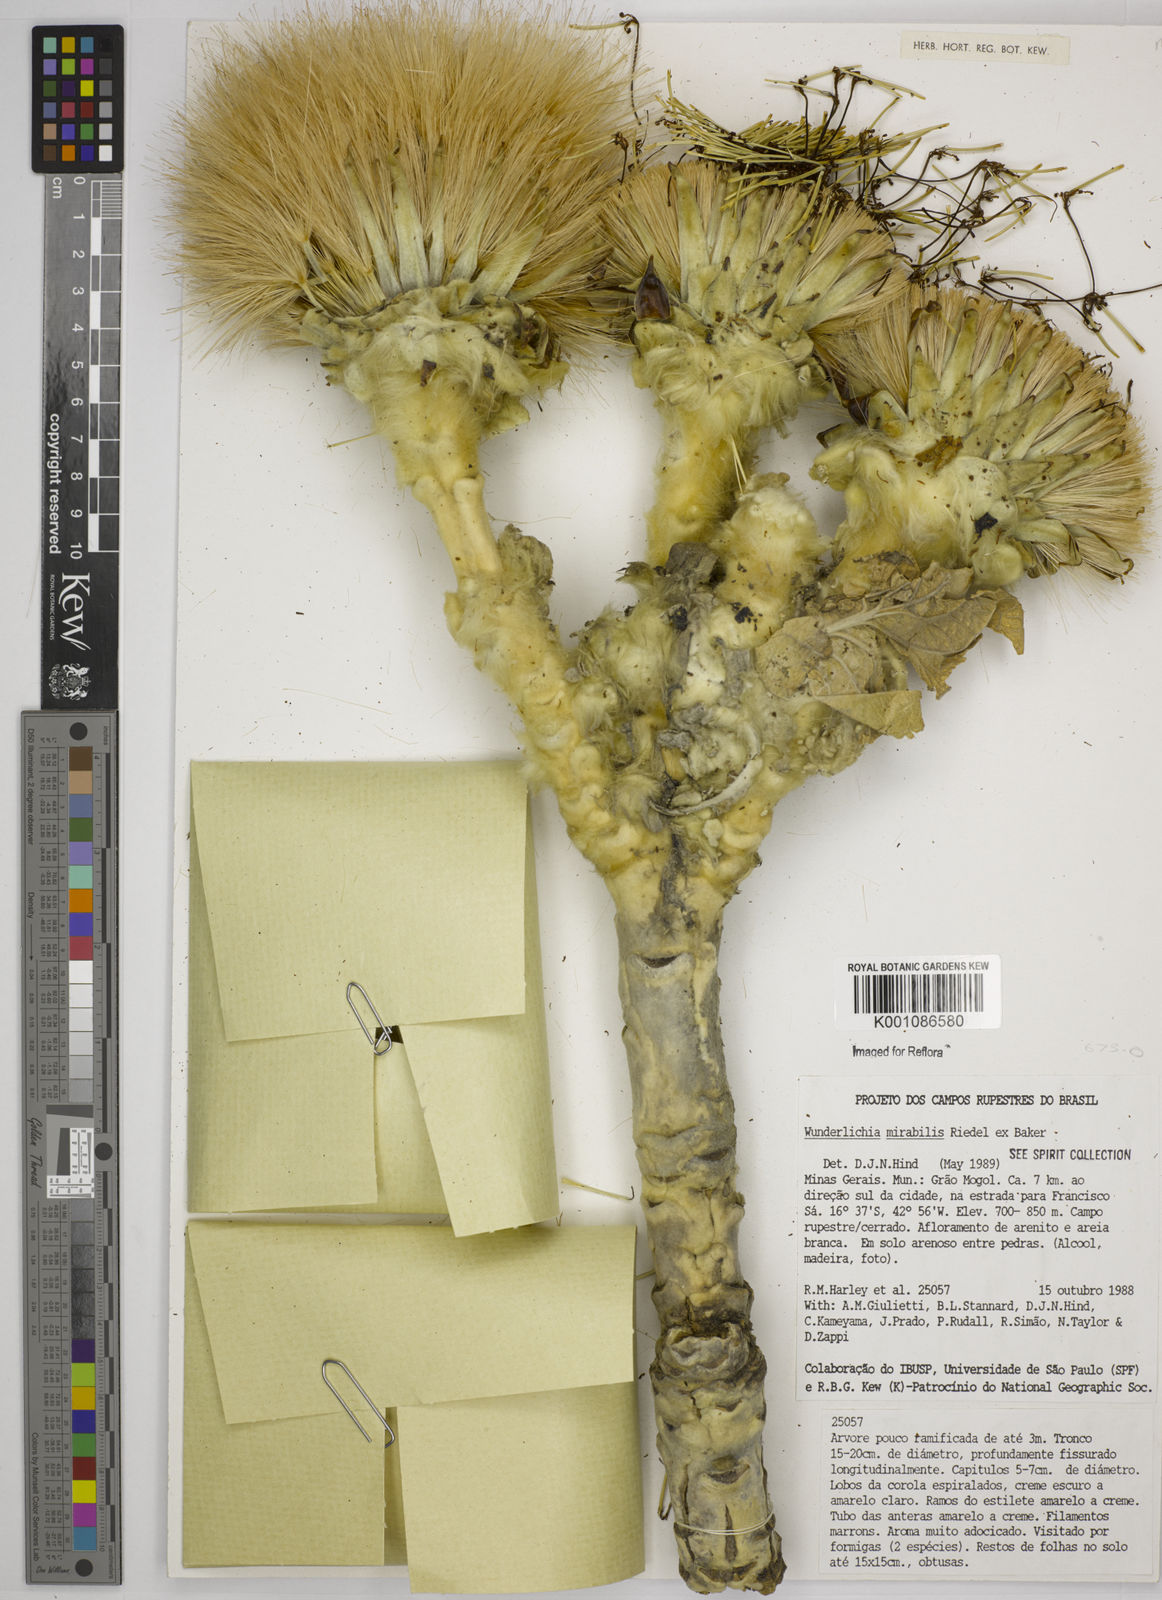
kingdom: Plantae
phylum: Tracheophyta
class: Magnoliopsida
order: Asterales
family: Asteraceae
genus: Wunderlichia
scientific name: Wunderlichia mirabilis
